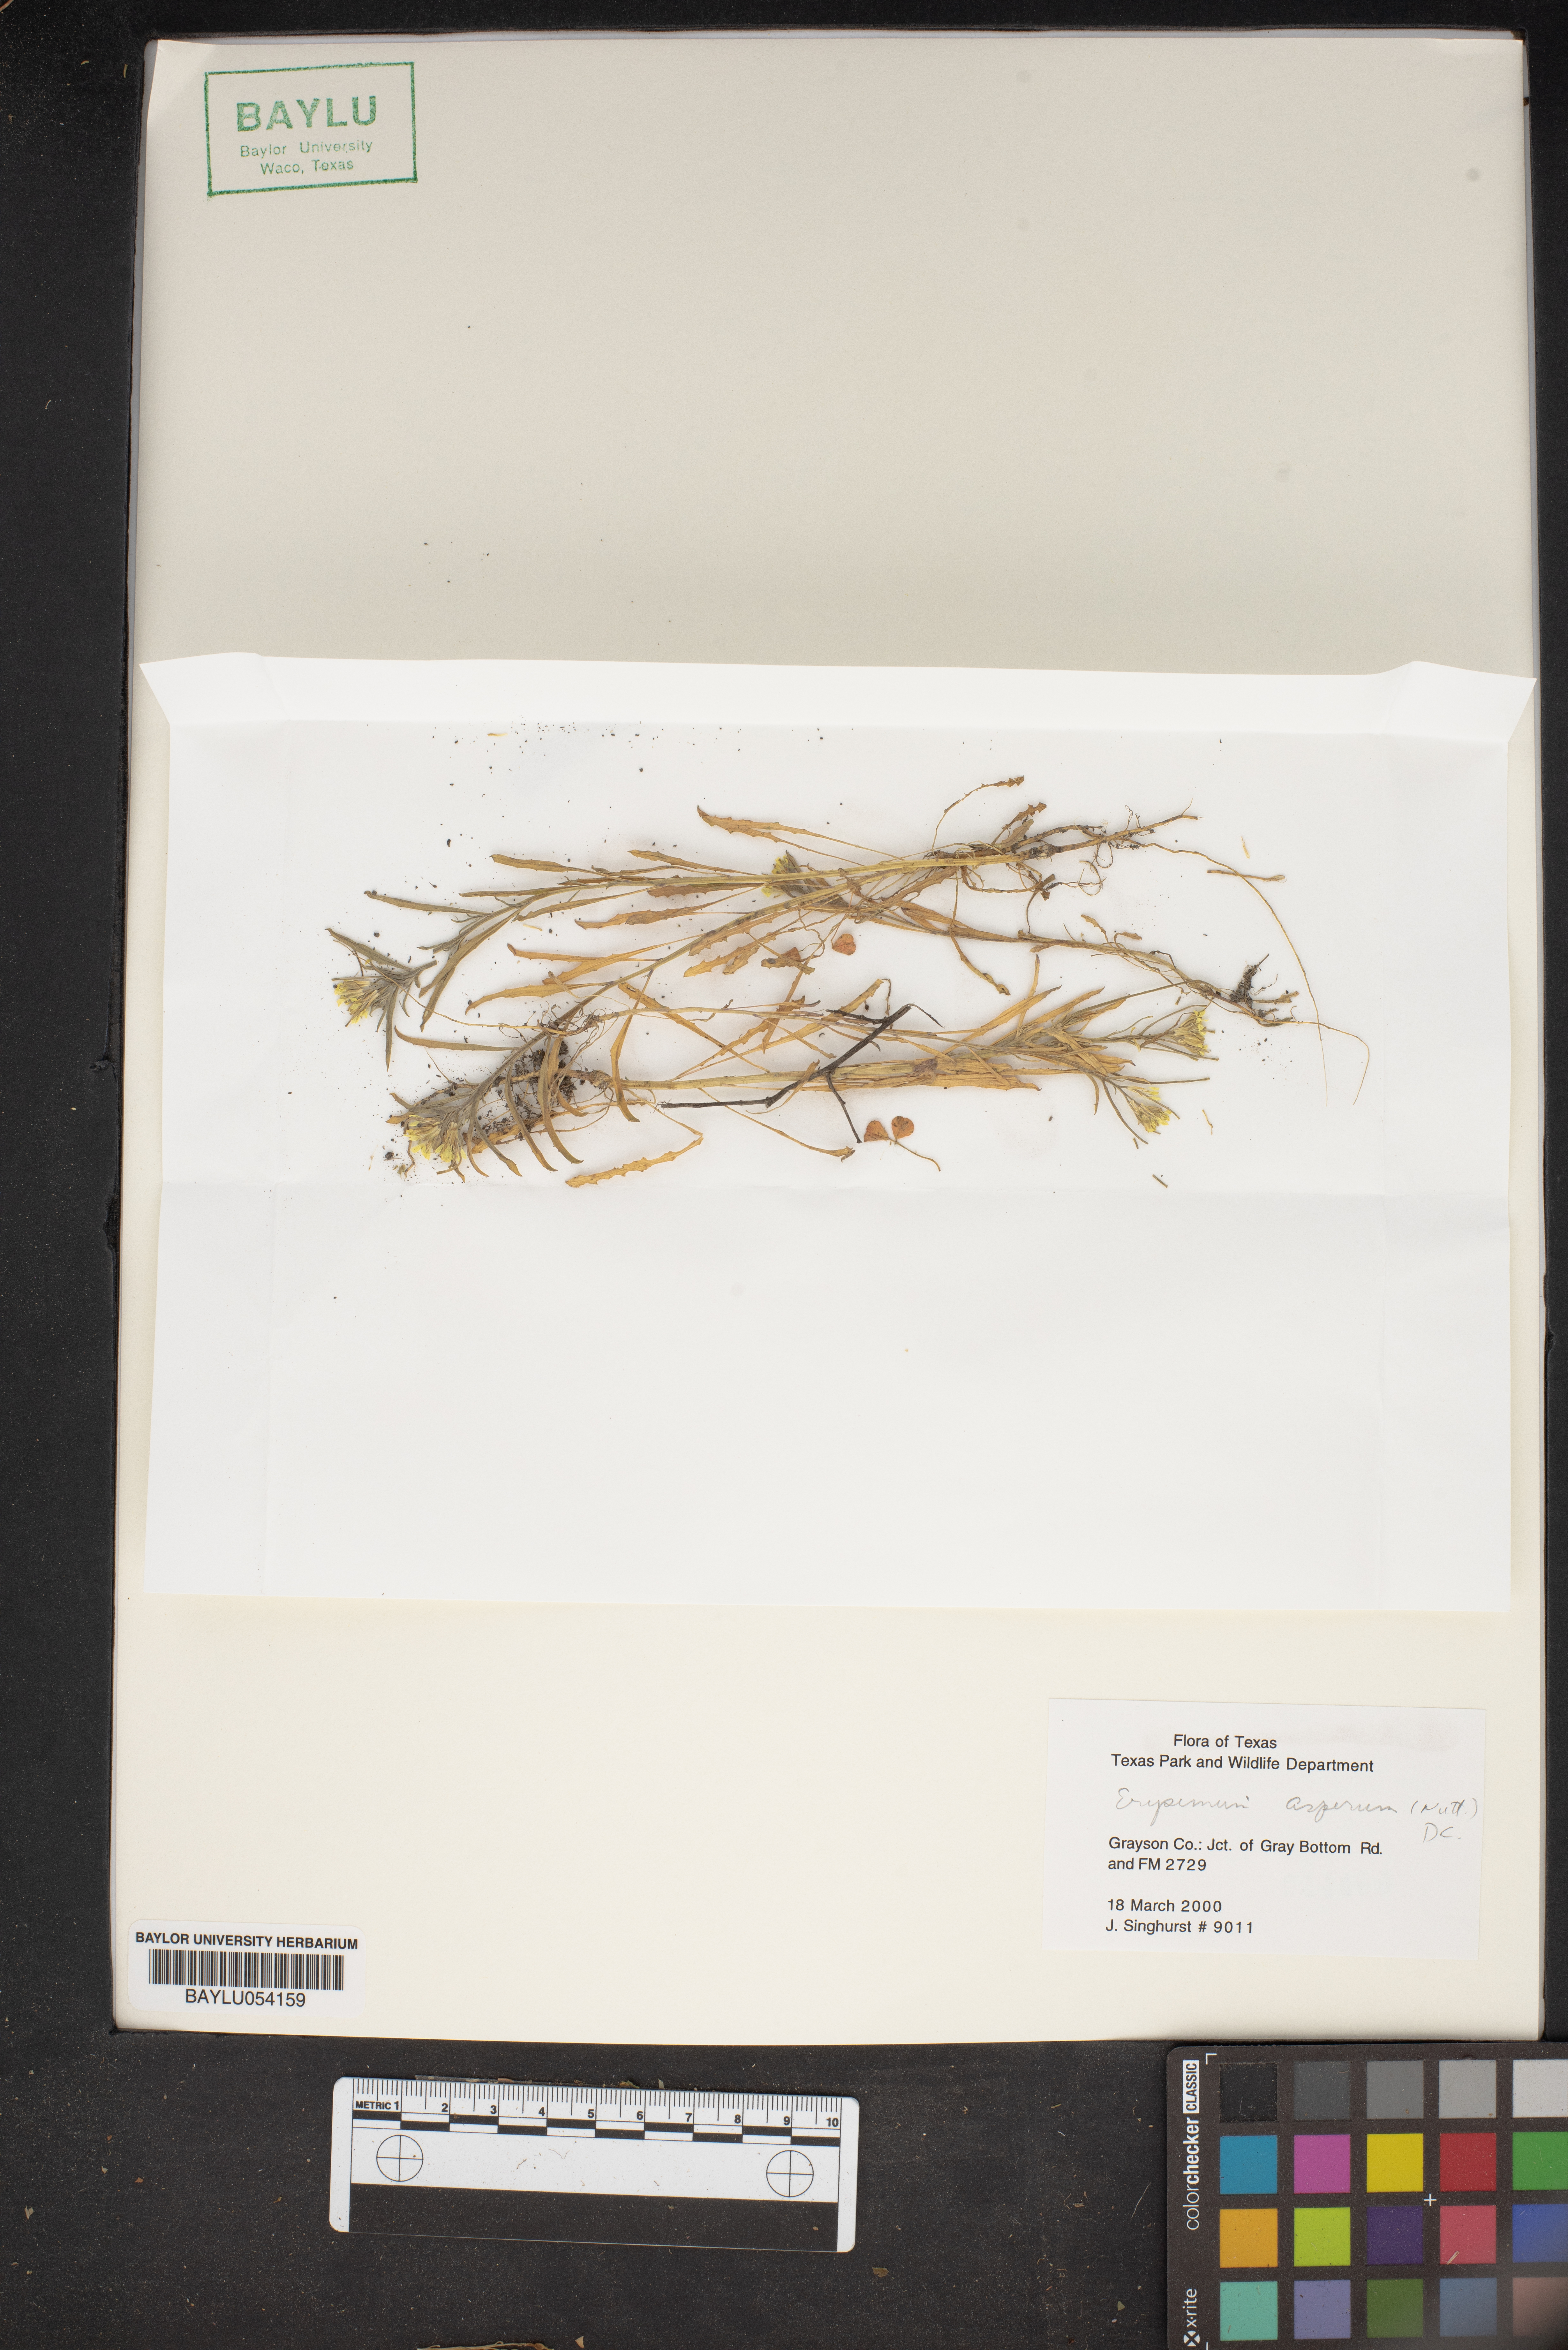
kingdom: Plantae
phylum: Tracheophyta
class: Magnoliopsida
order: Brassicales
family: Brassicaceae
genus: Erysimum
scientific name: Erysimum asperum
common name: Western wallflower
